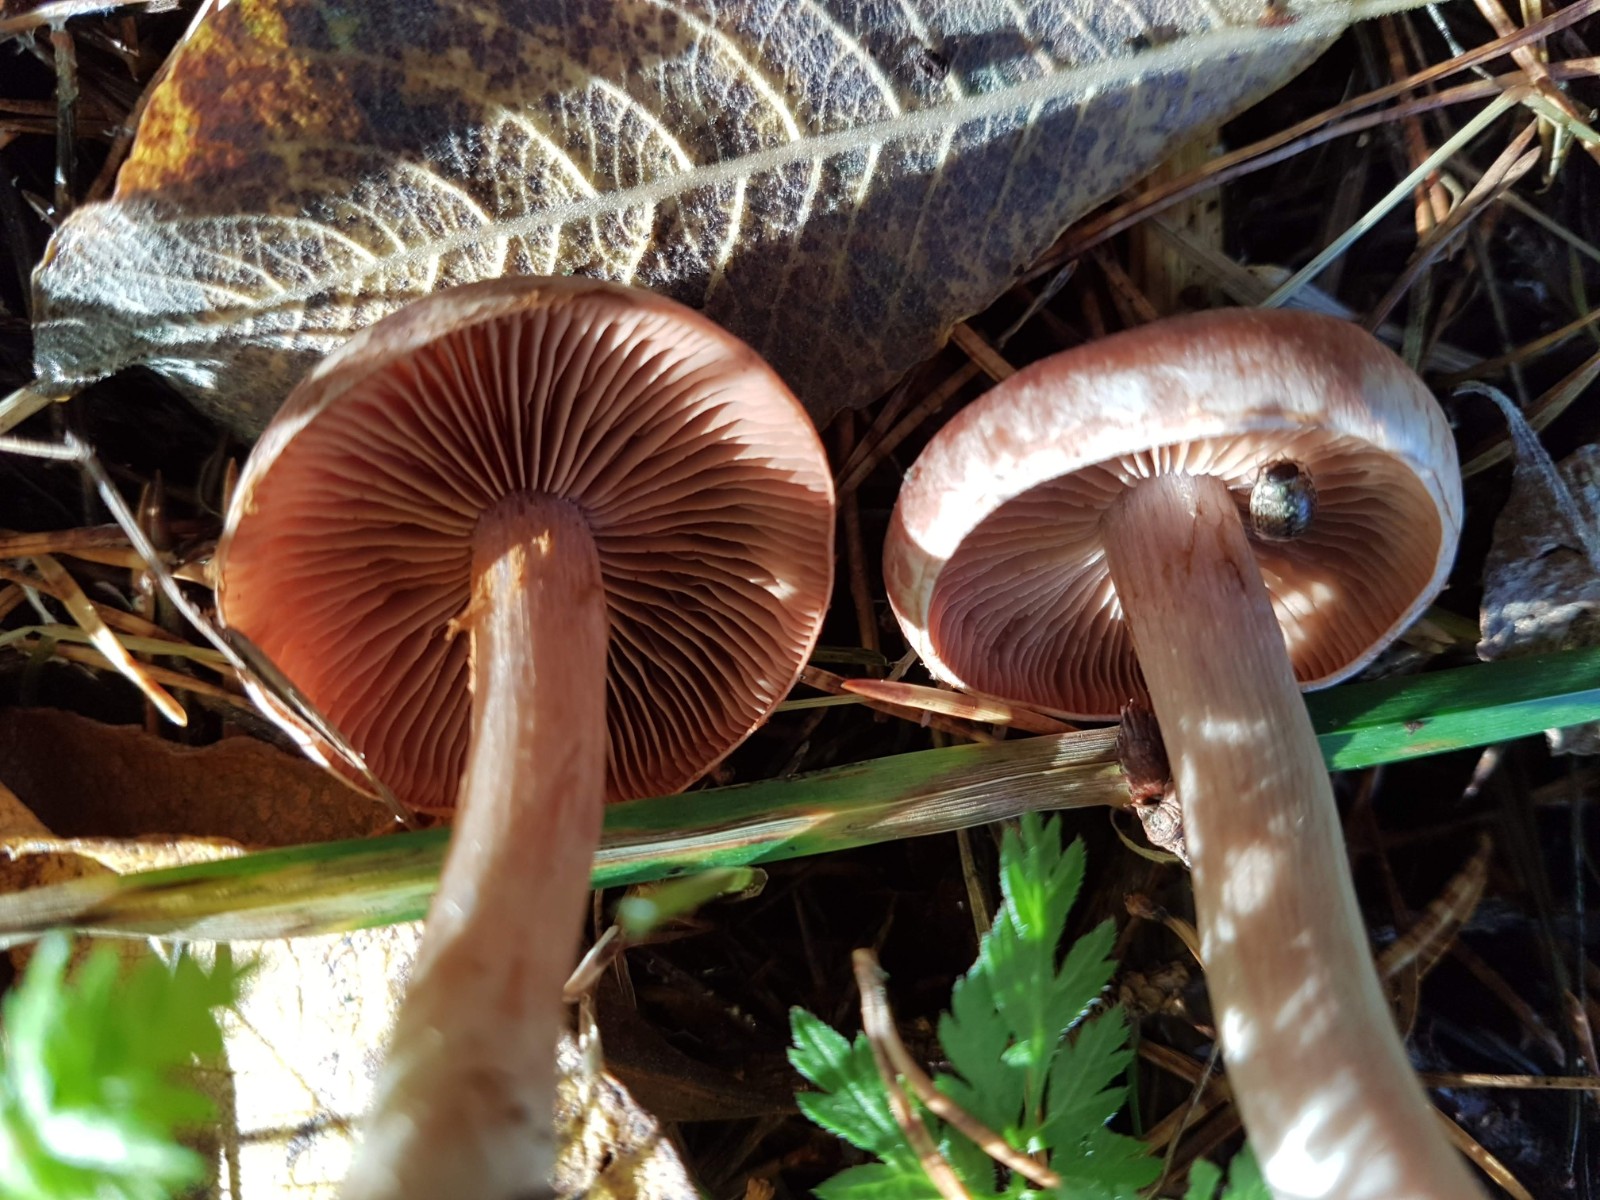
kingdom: Fungi
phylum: Basidiomycota
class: Agaricomycetes
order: Agaricales
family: Cortinariaceae
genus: Cortinarius
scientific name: Cortinarius
